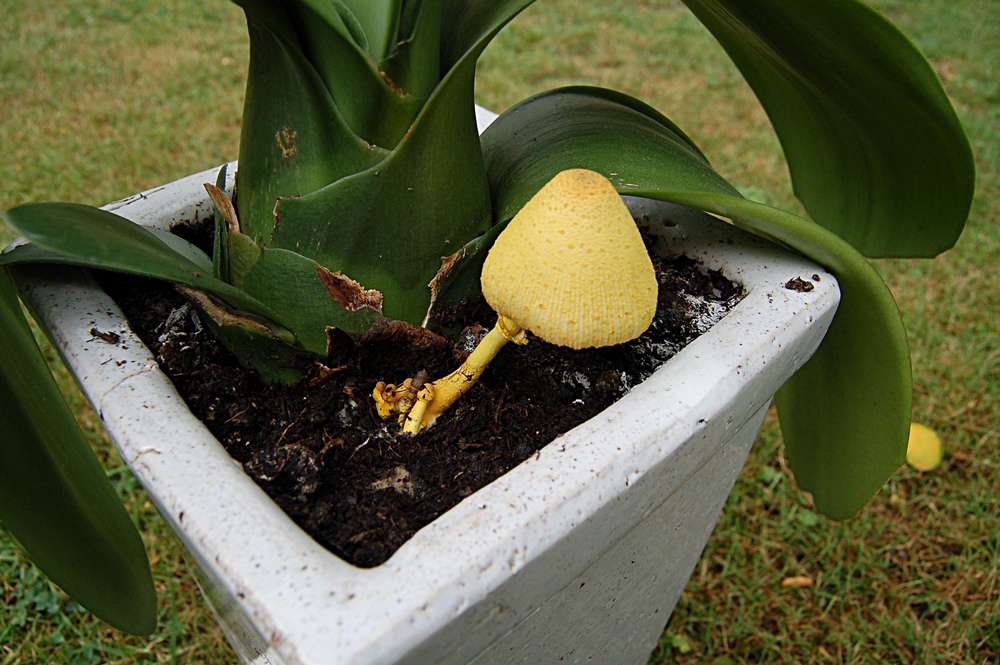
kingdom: Fungi
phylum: Basidiomycota
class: Agaricomycetes
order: Agaricales
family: Agaricaceae
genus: Leucocoprinus
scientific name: Leucocoprinus birnbaumii
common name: gul silkehat
